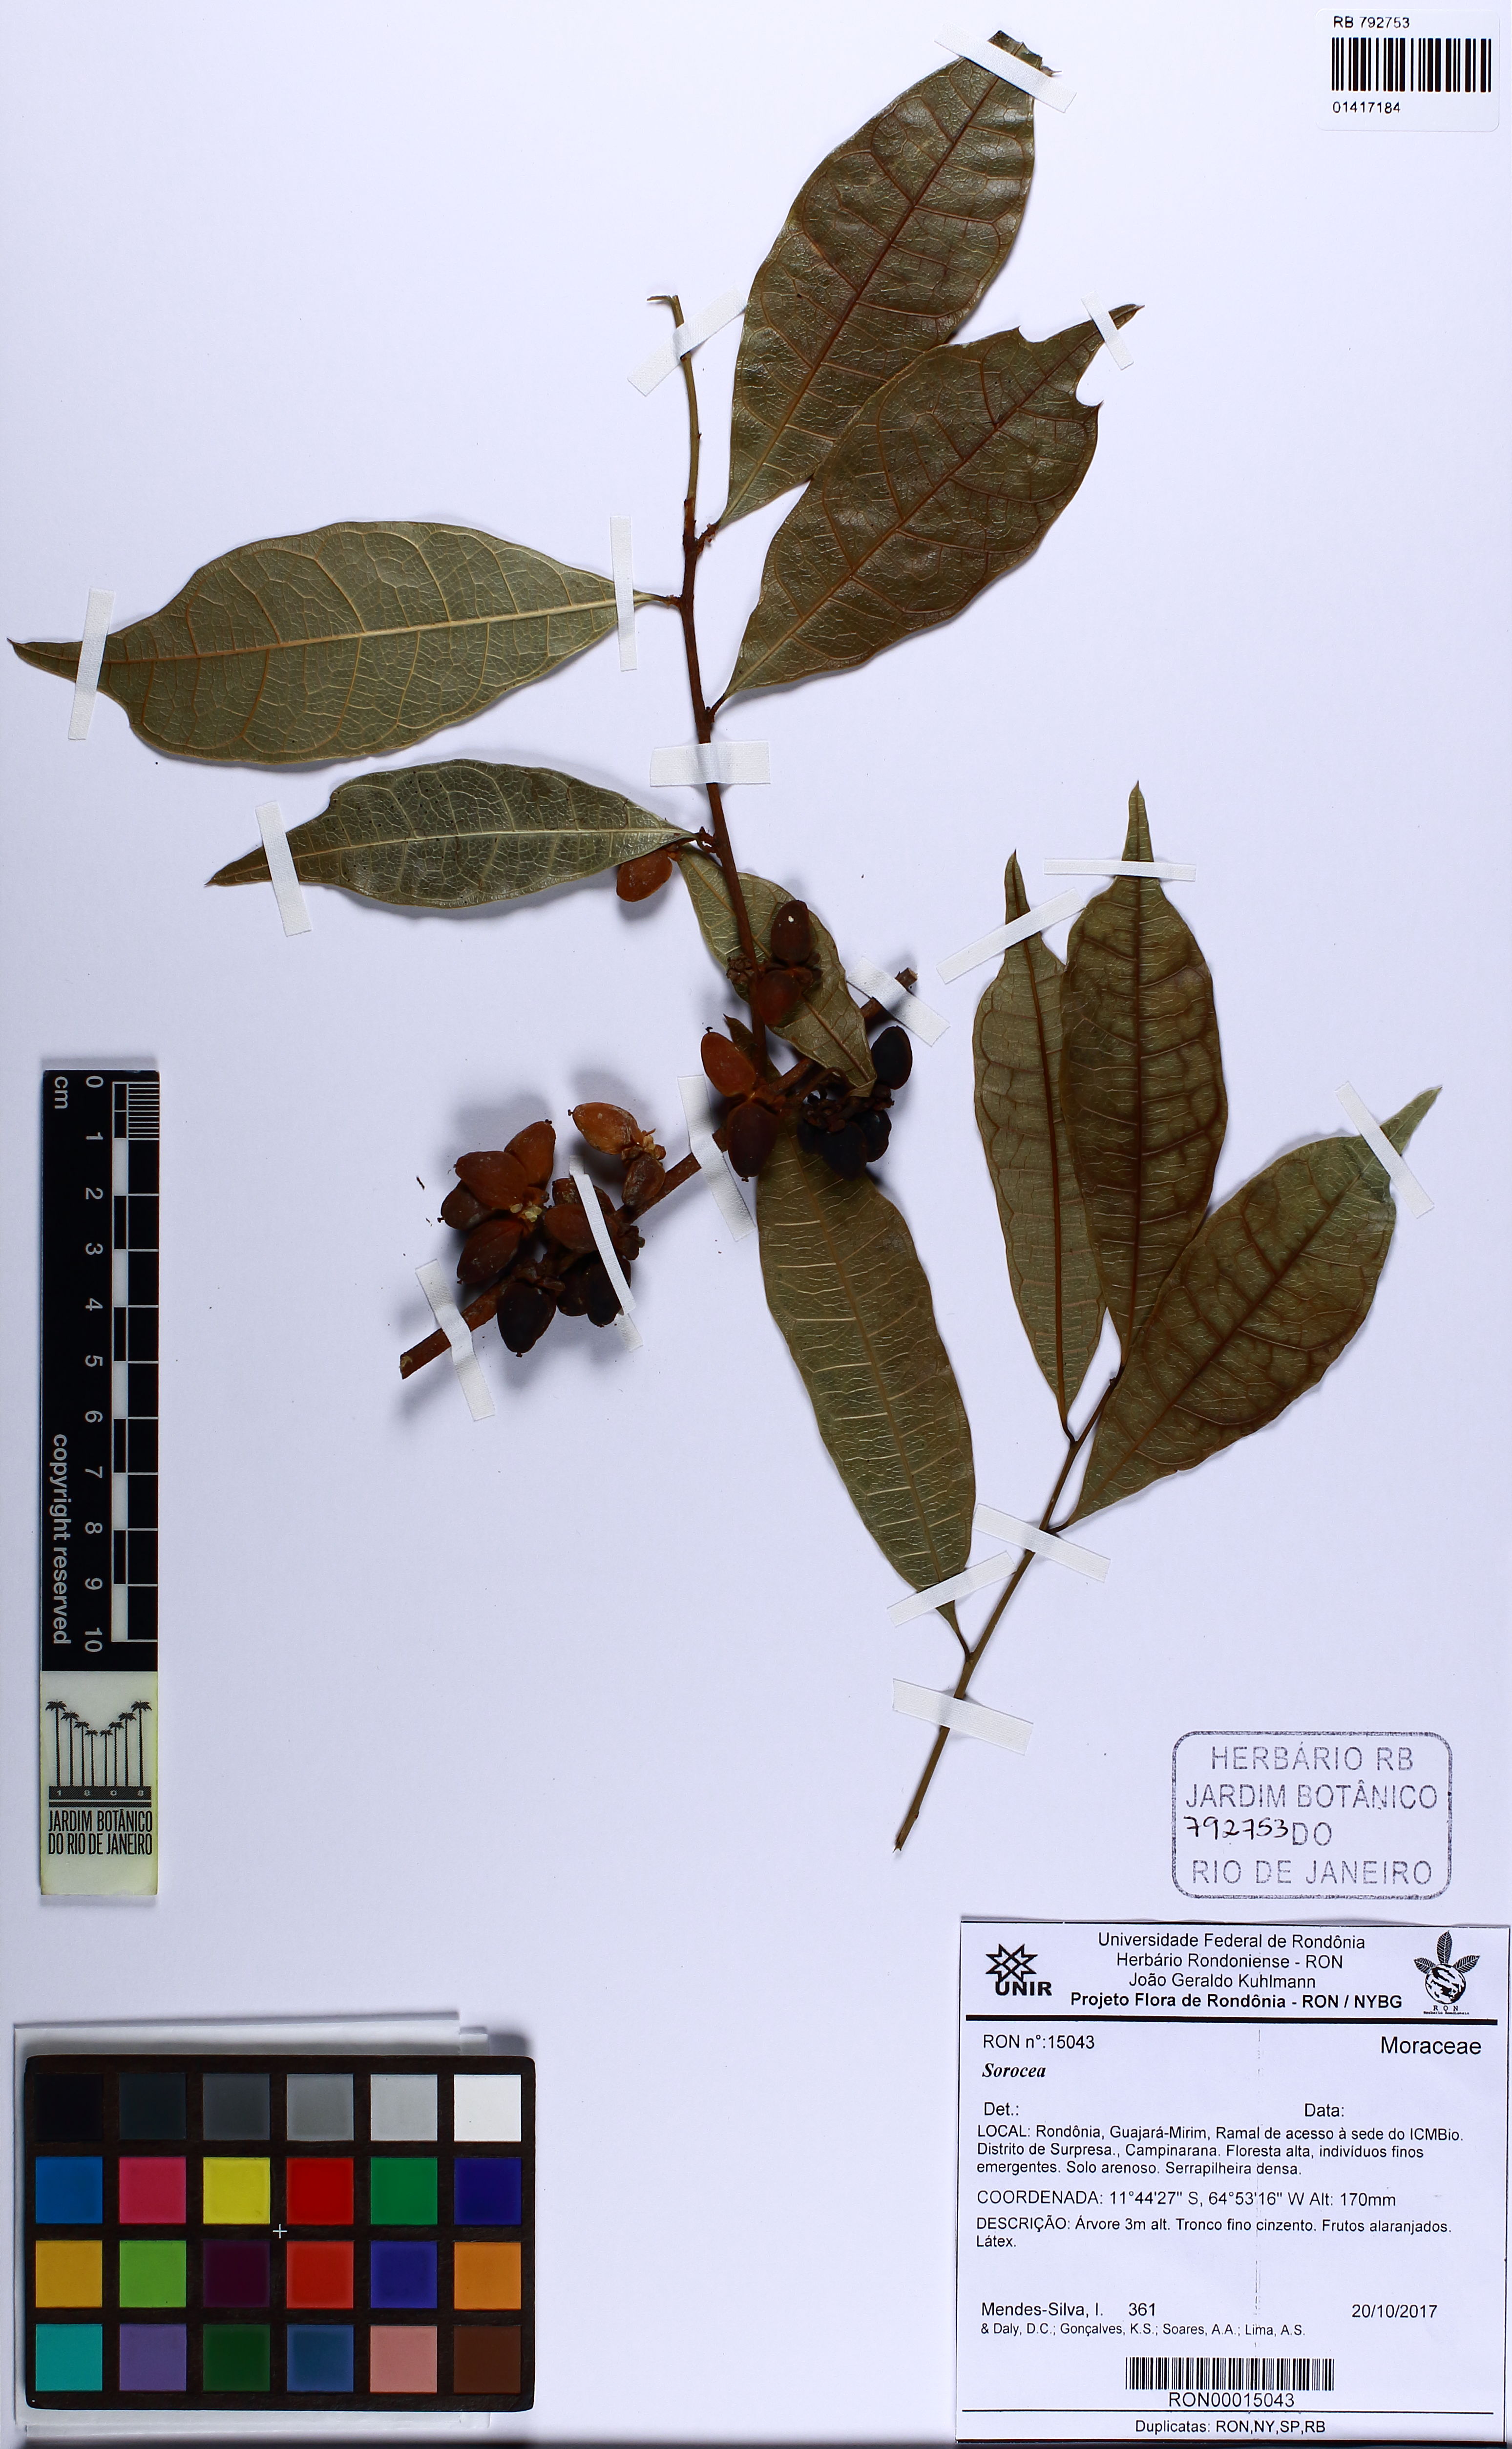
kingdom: Plantae
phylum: Tracheophyta
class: Magnoliopsida
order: Rosales
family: Moraceae
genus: Sorocea
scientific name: Sorocea
